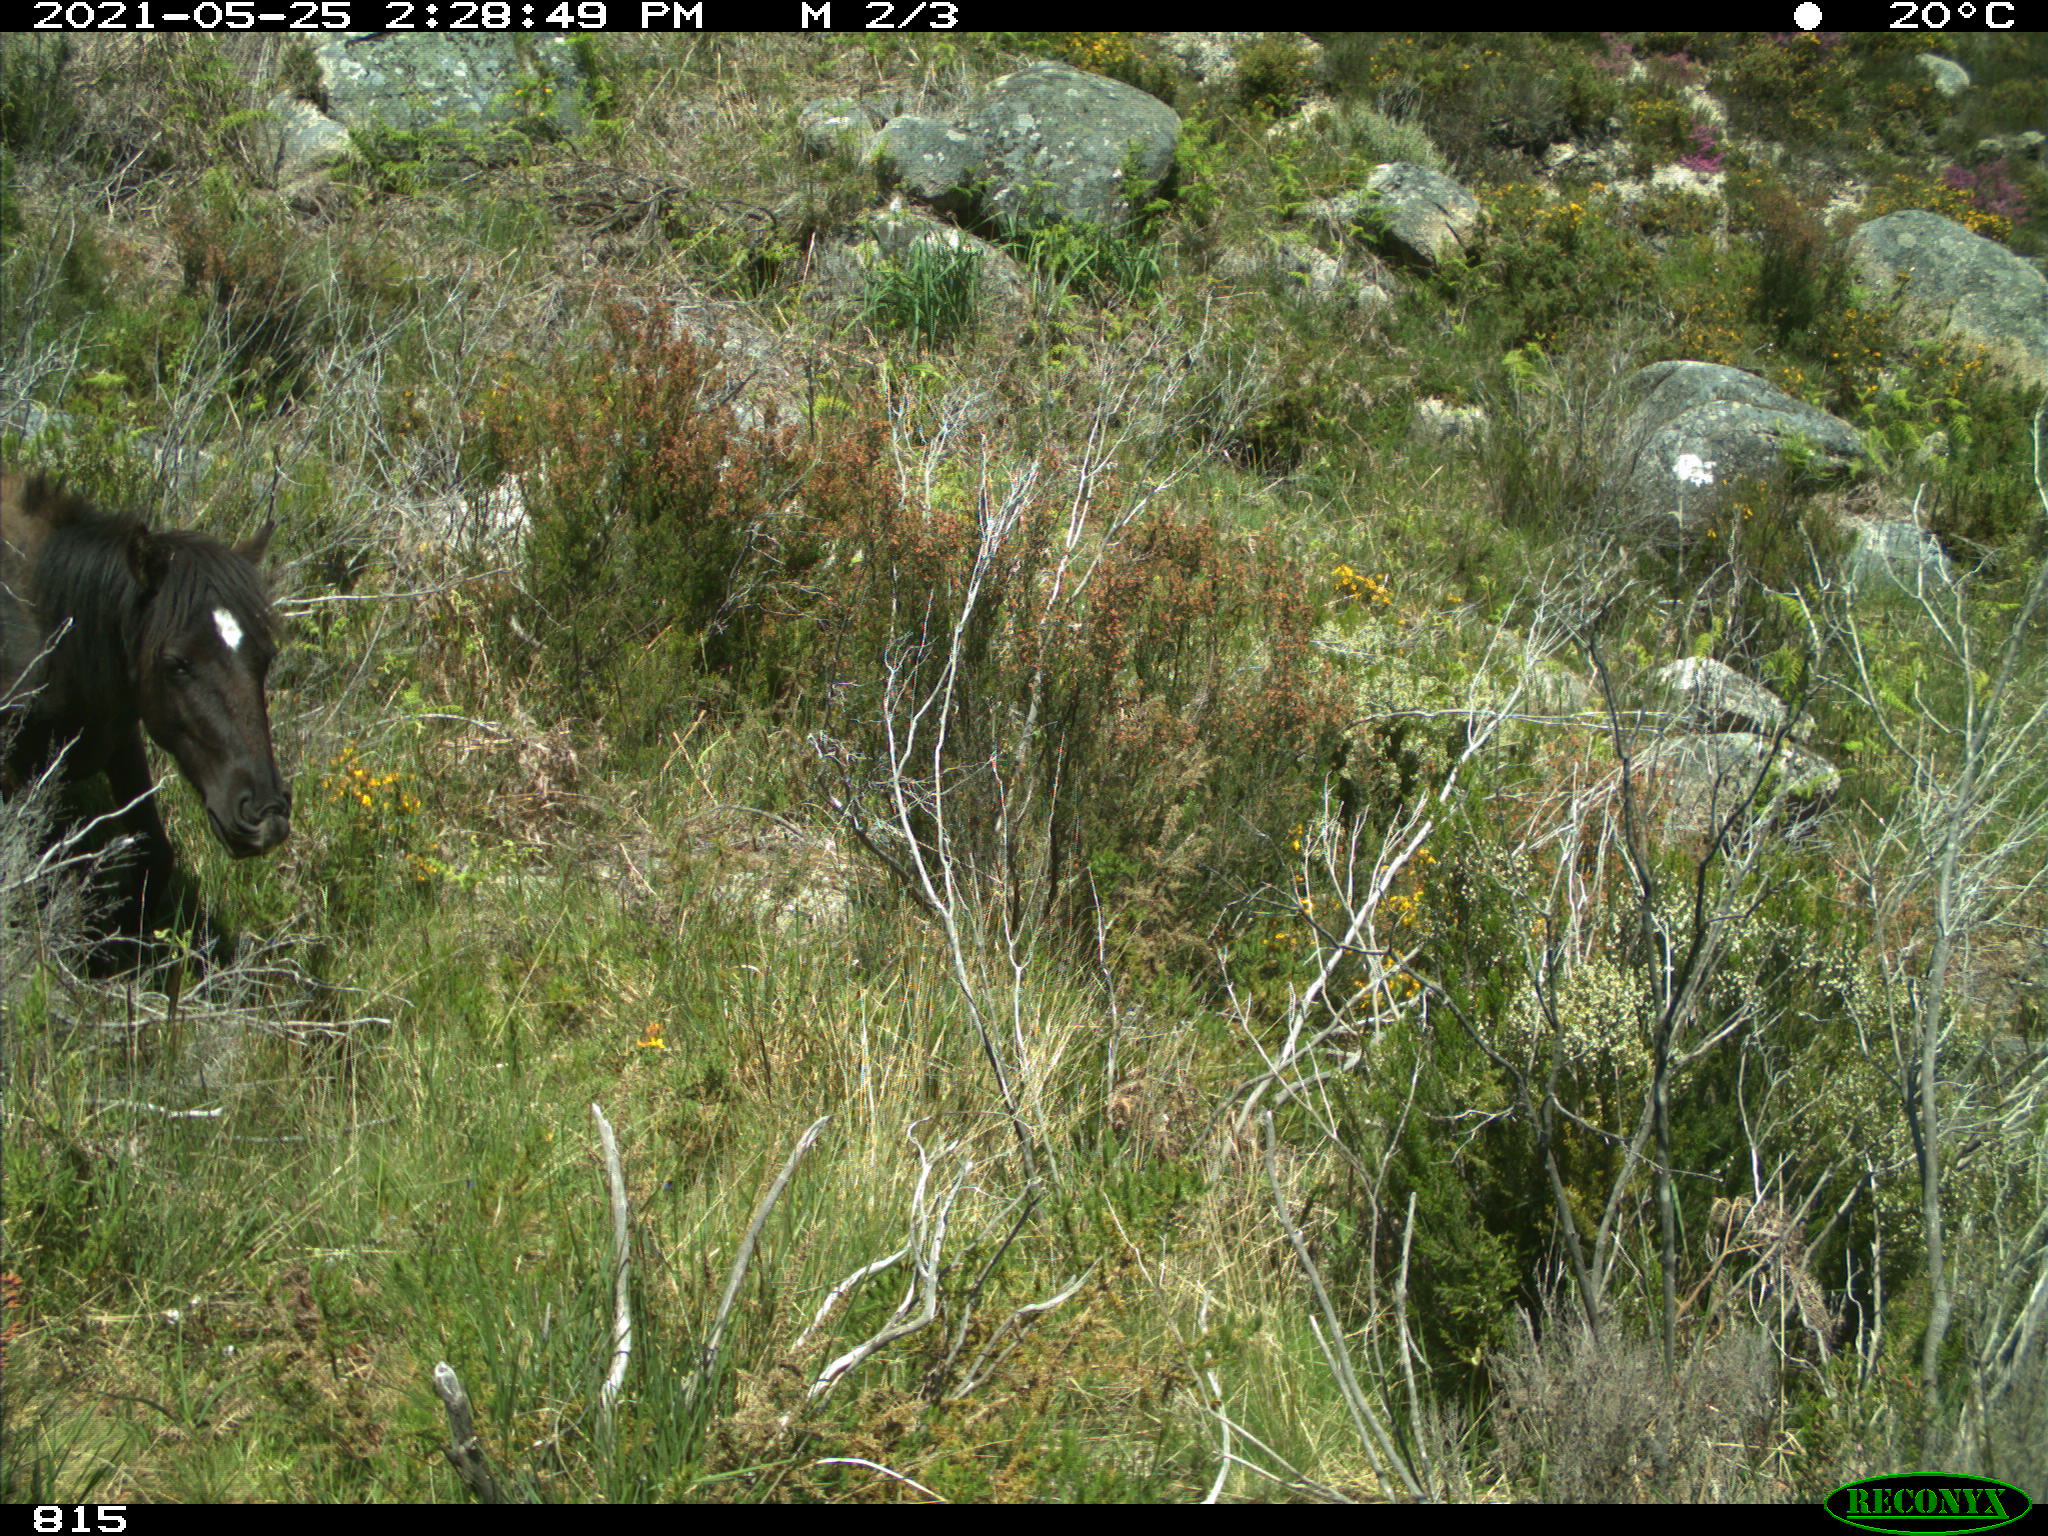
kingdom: Animalia
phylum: Chordata
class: Mammalia
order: Perissodactyla
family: Equidae
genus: Equus
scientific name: Equus caballus
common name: Horse
